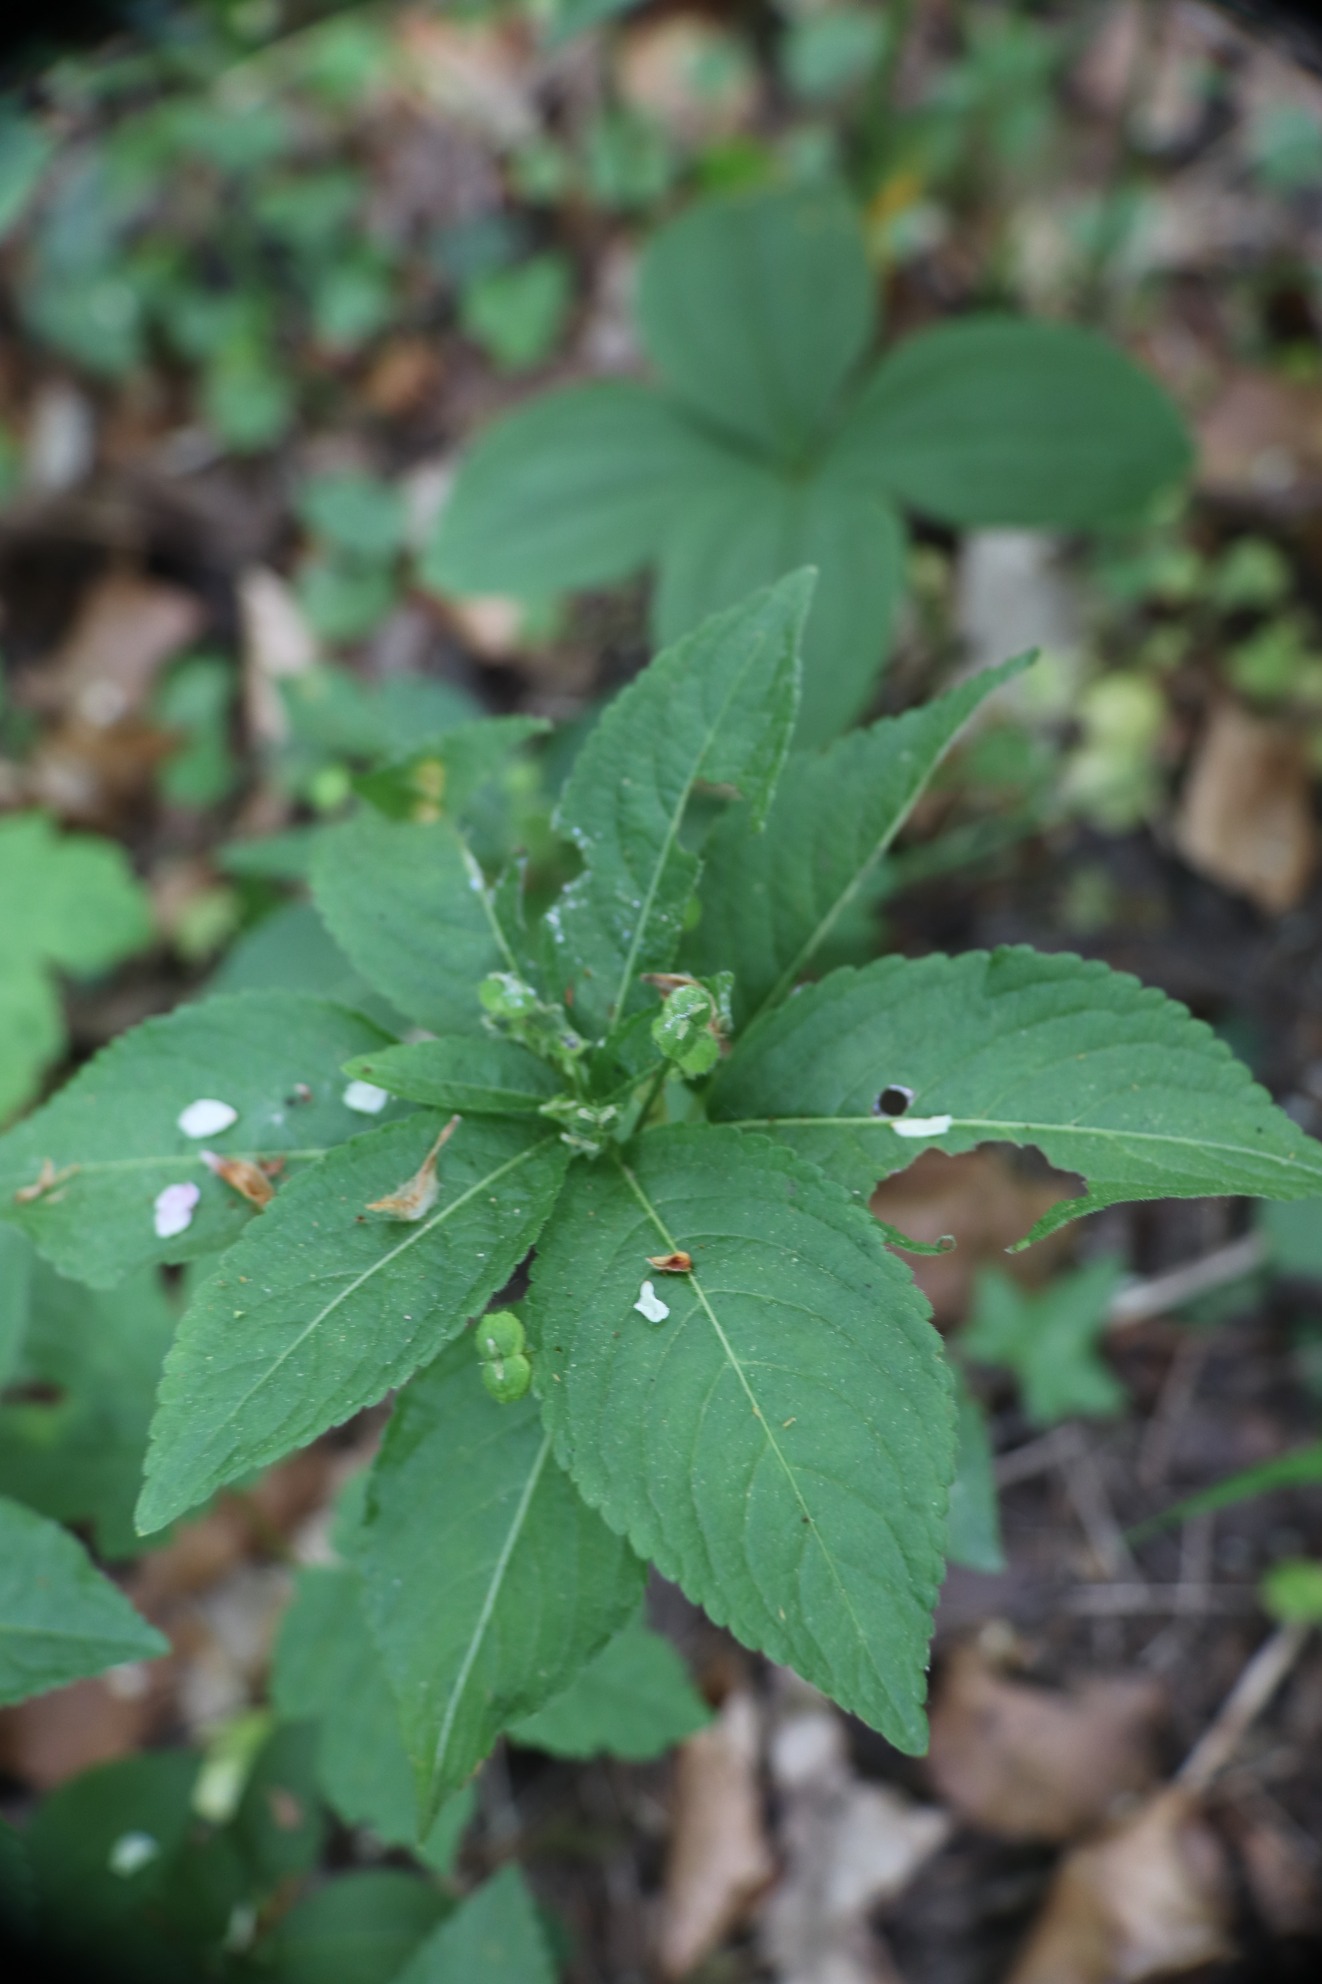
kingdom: Plantae
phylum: Tracheophyta
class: Magnoliopsida
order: Malpighiales
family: Euphorbiaceae
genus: Mercurialis
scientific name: Mercurialis perennis
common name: Almindelig bingelurt
